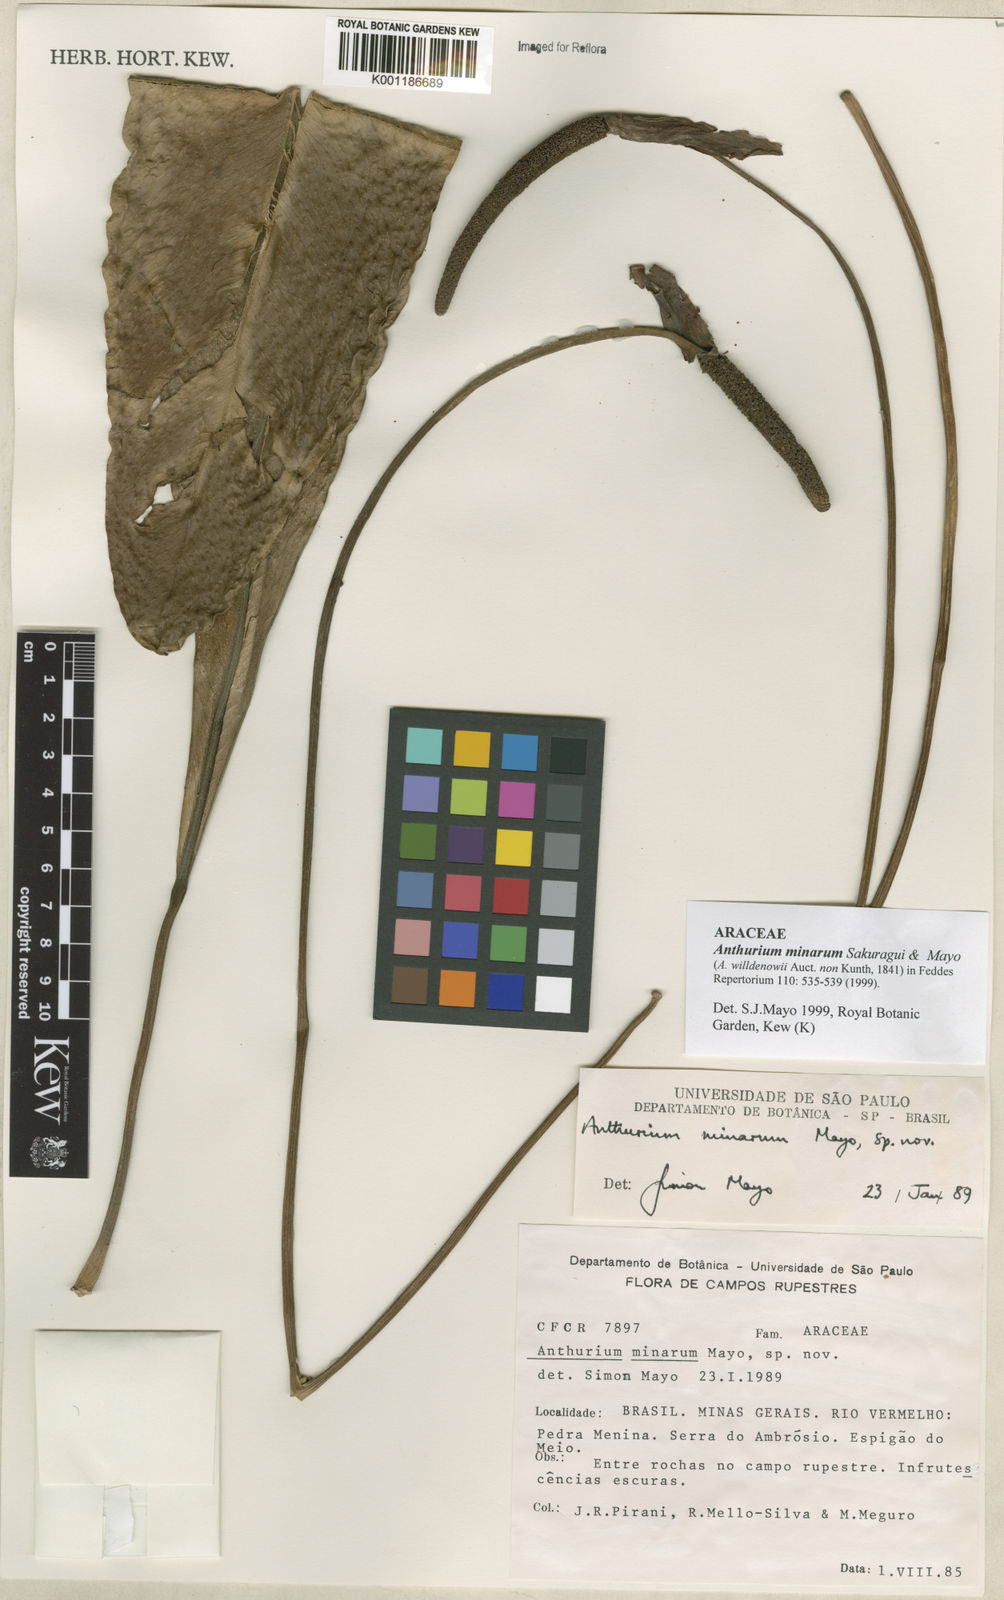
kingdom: Plantae
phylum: Tracheophyta
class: Liliopsida
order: Alismatales
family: Araceae
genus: Anthurium
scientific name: Anthurium minarum
